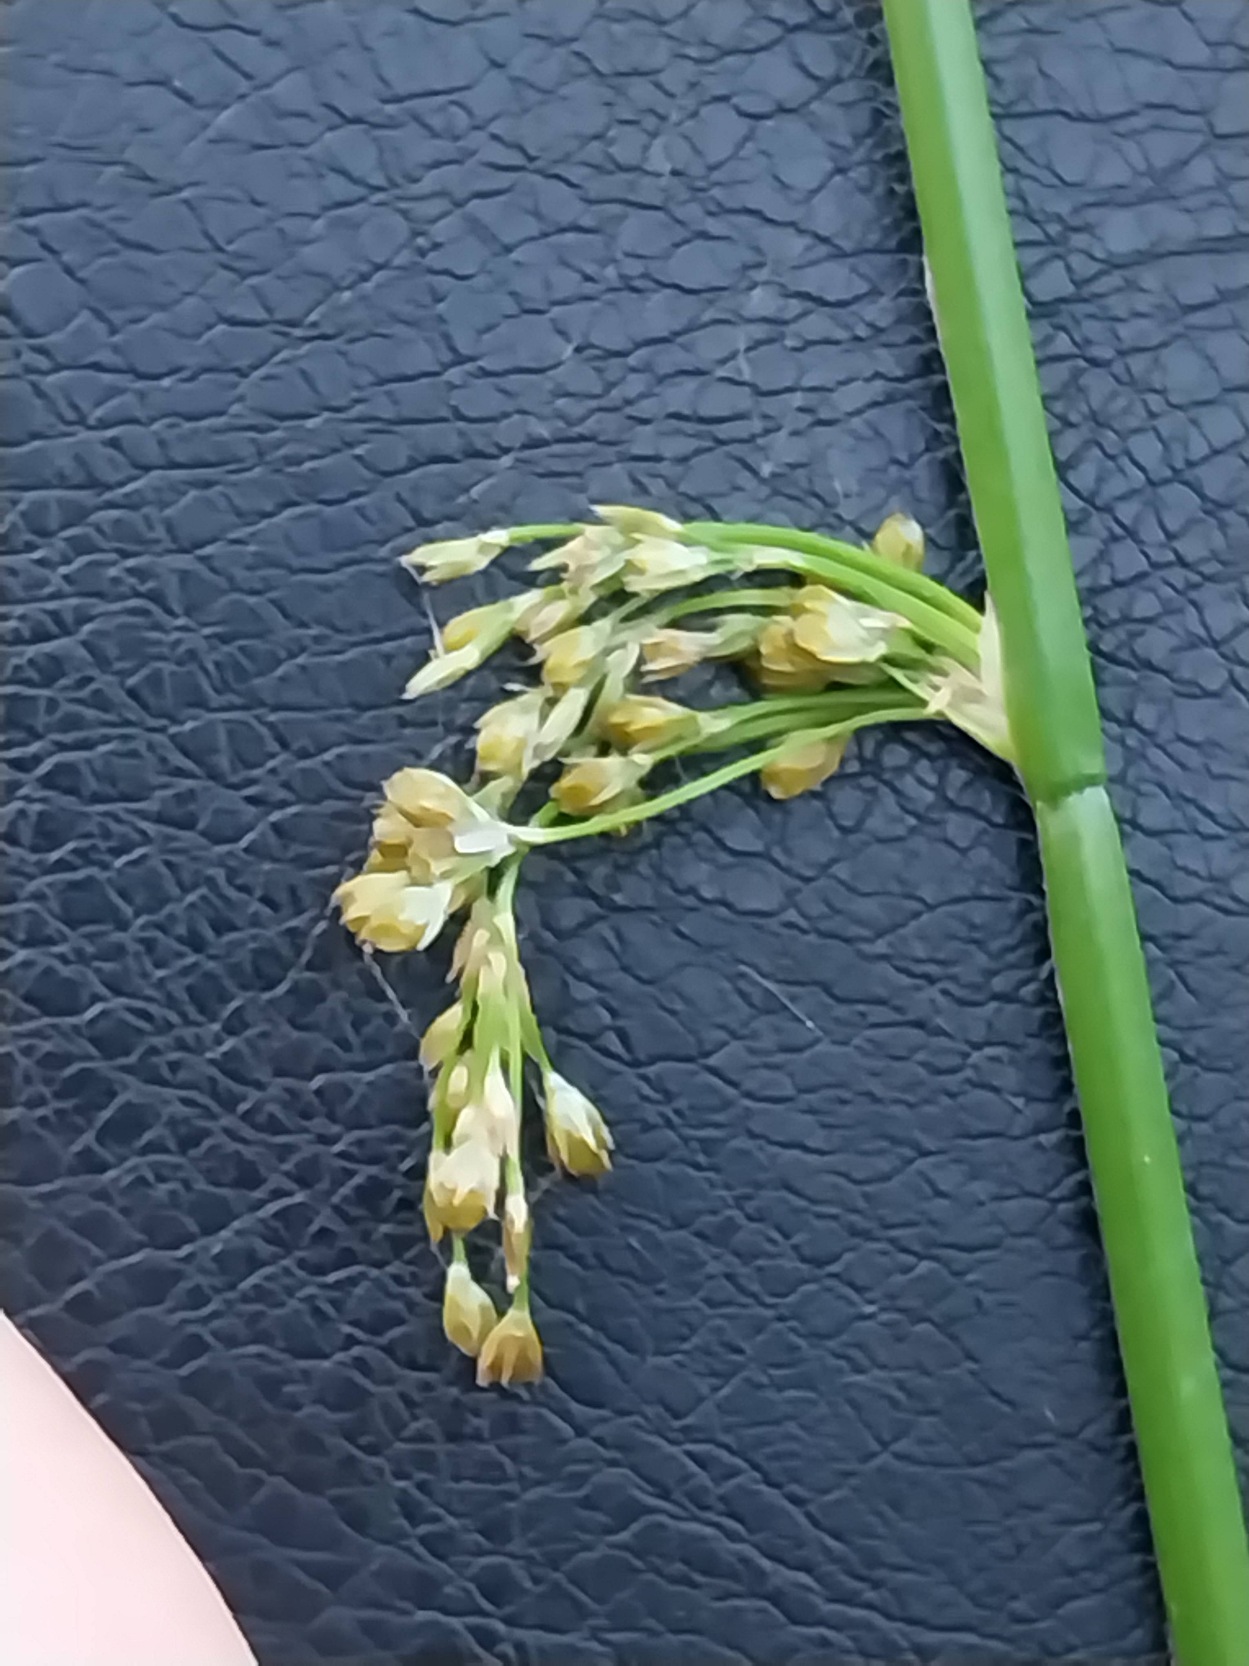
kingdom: Plantae
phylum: Tracheophyta
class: Liliopsida
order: Poales
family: Juncaceae
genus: Juncus
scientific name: Juncus effusus
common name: Lyse-siv
